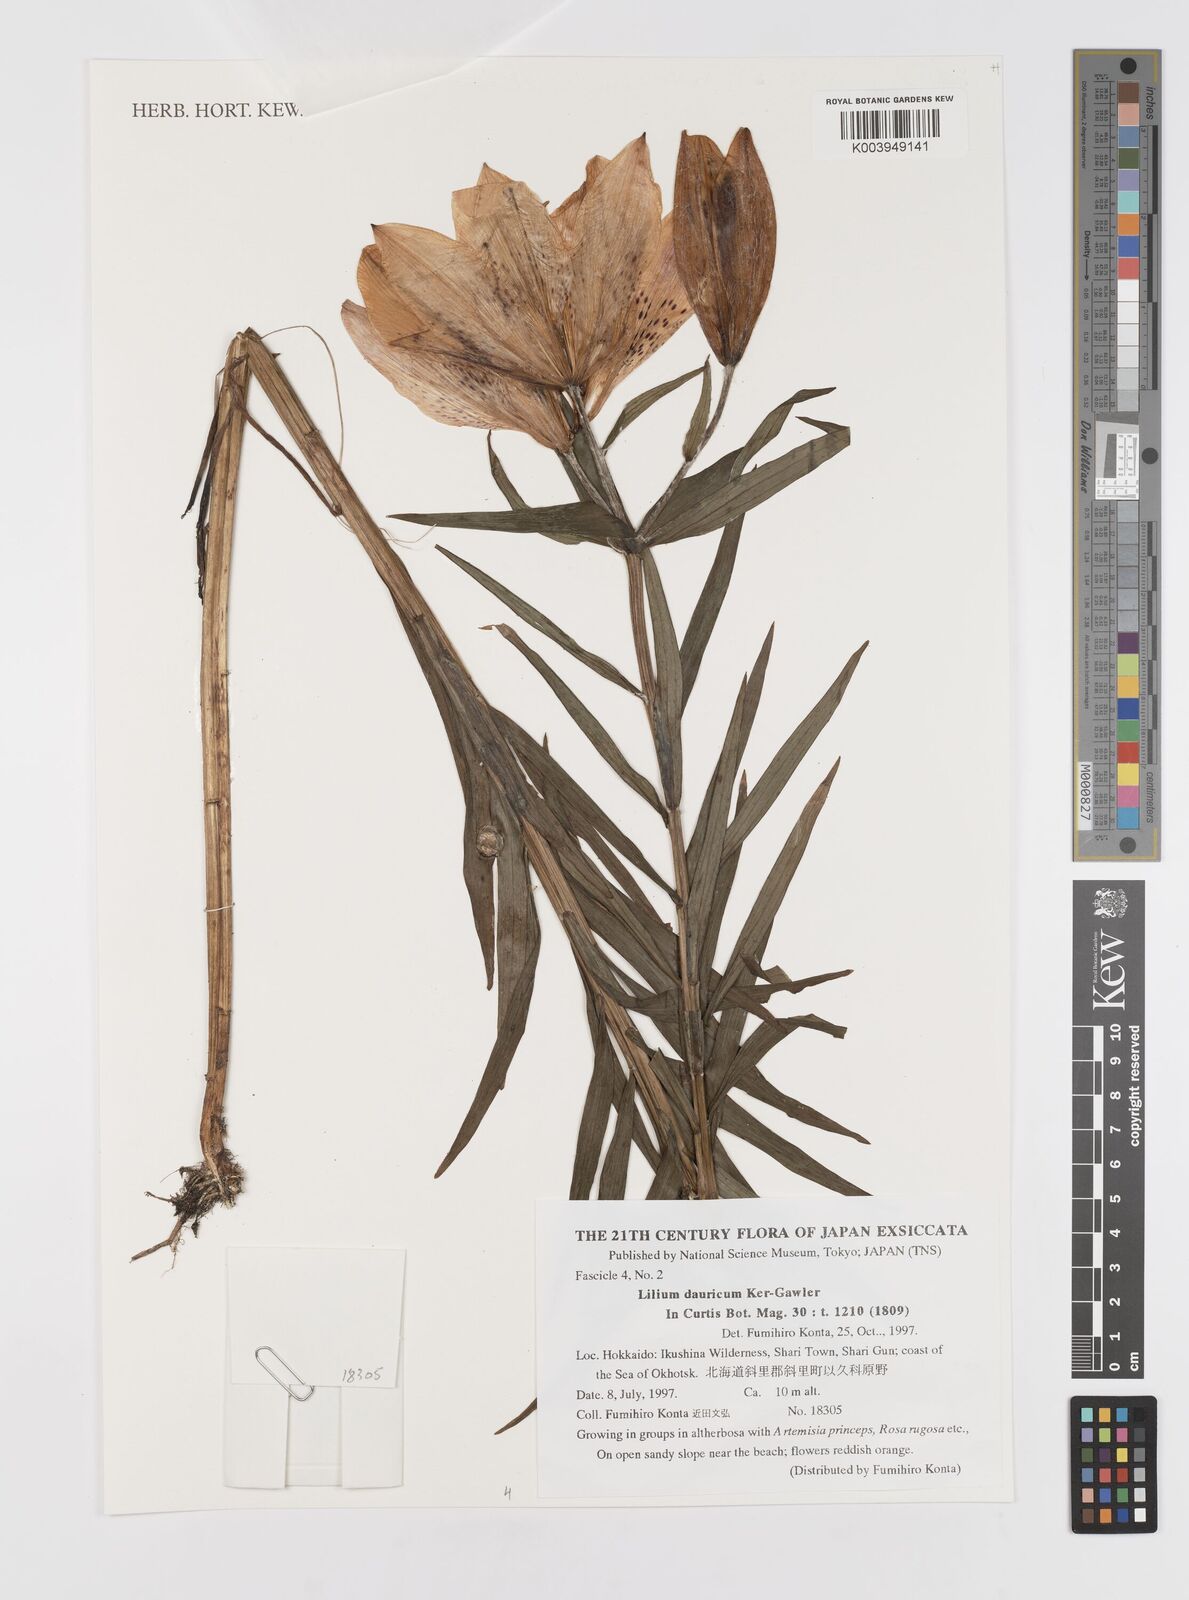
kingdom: Plantae
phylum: Tracheophyta
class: Liliopsida
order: Liliales
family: Liliaceae
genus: Lilium
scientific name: Lilium pensylvanicum
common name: Candlestick lily
